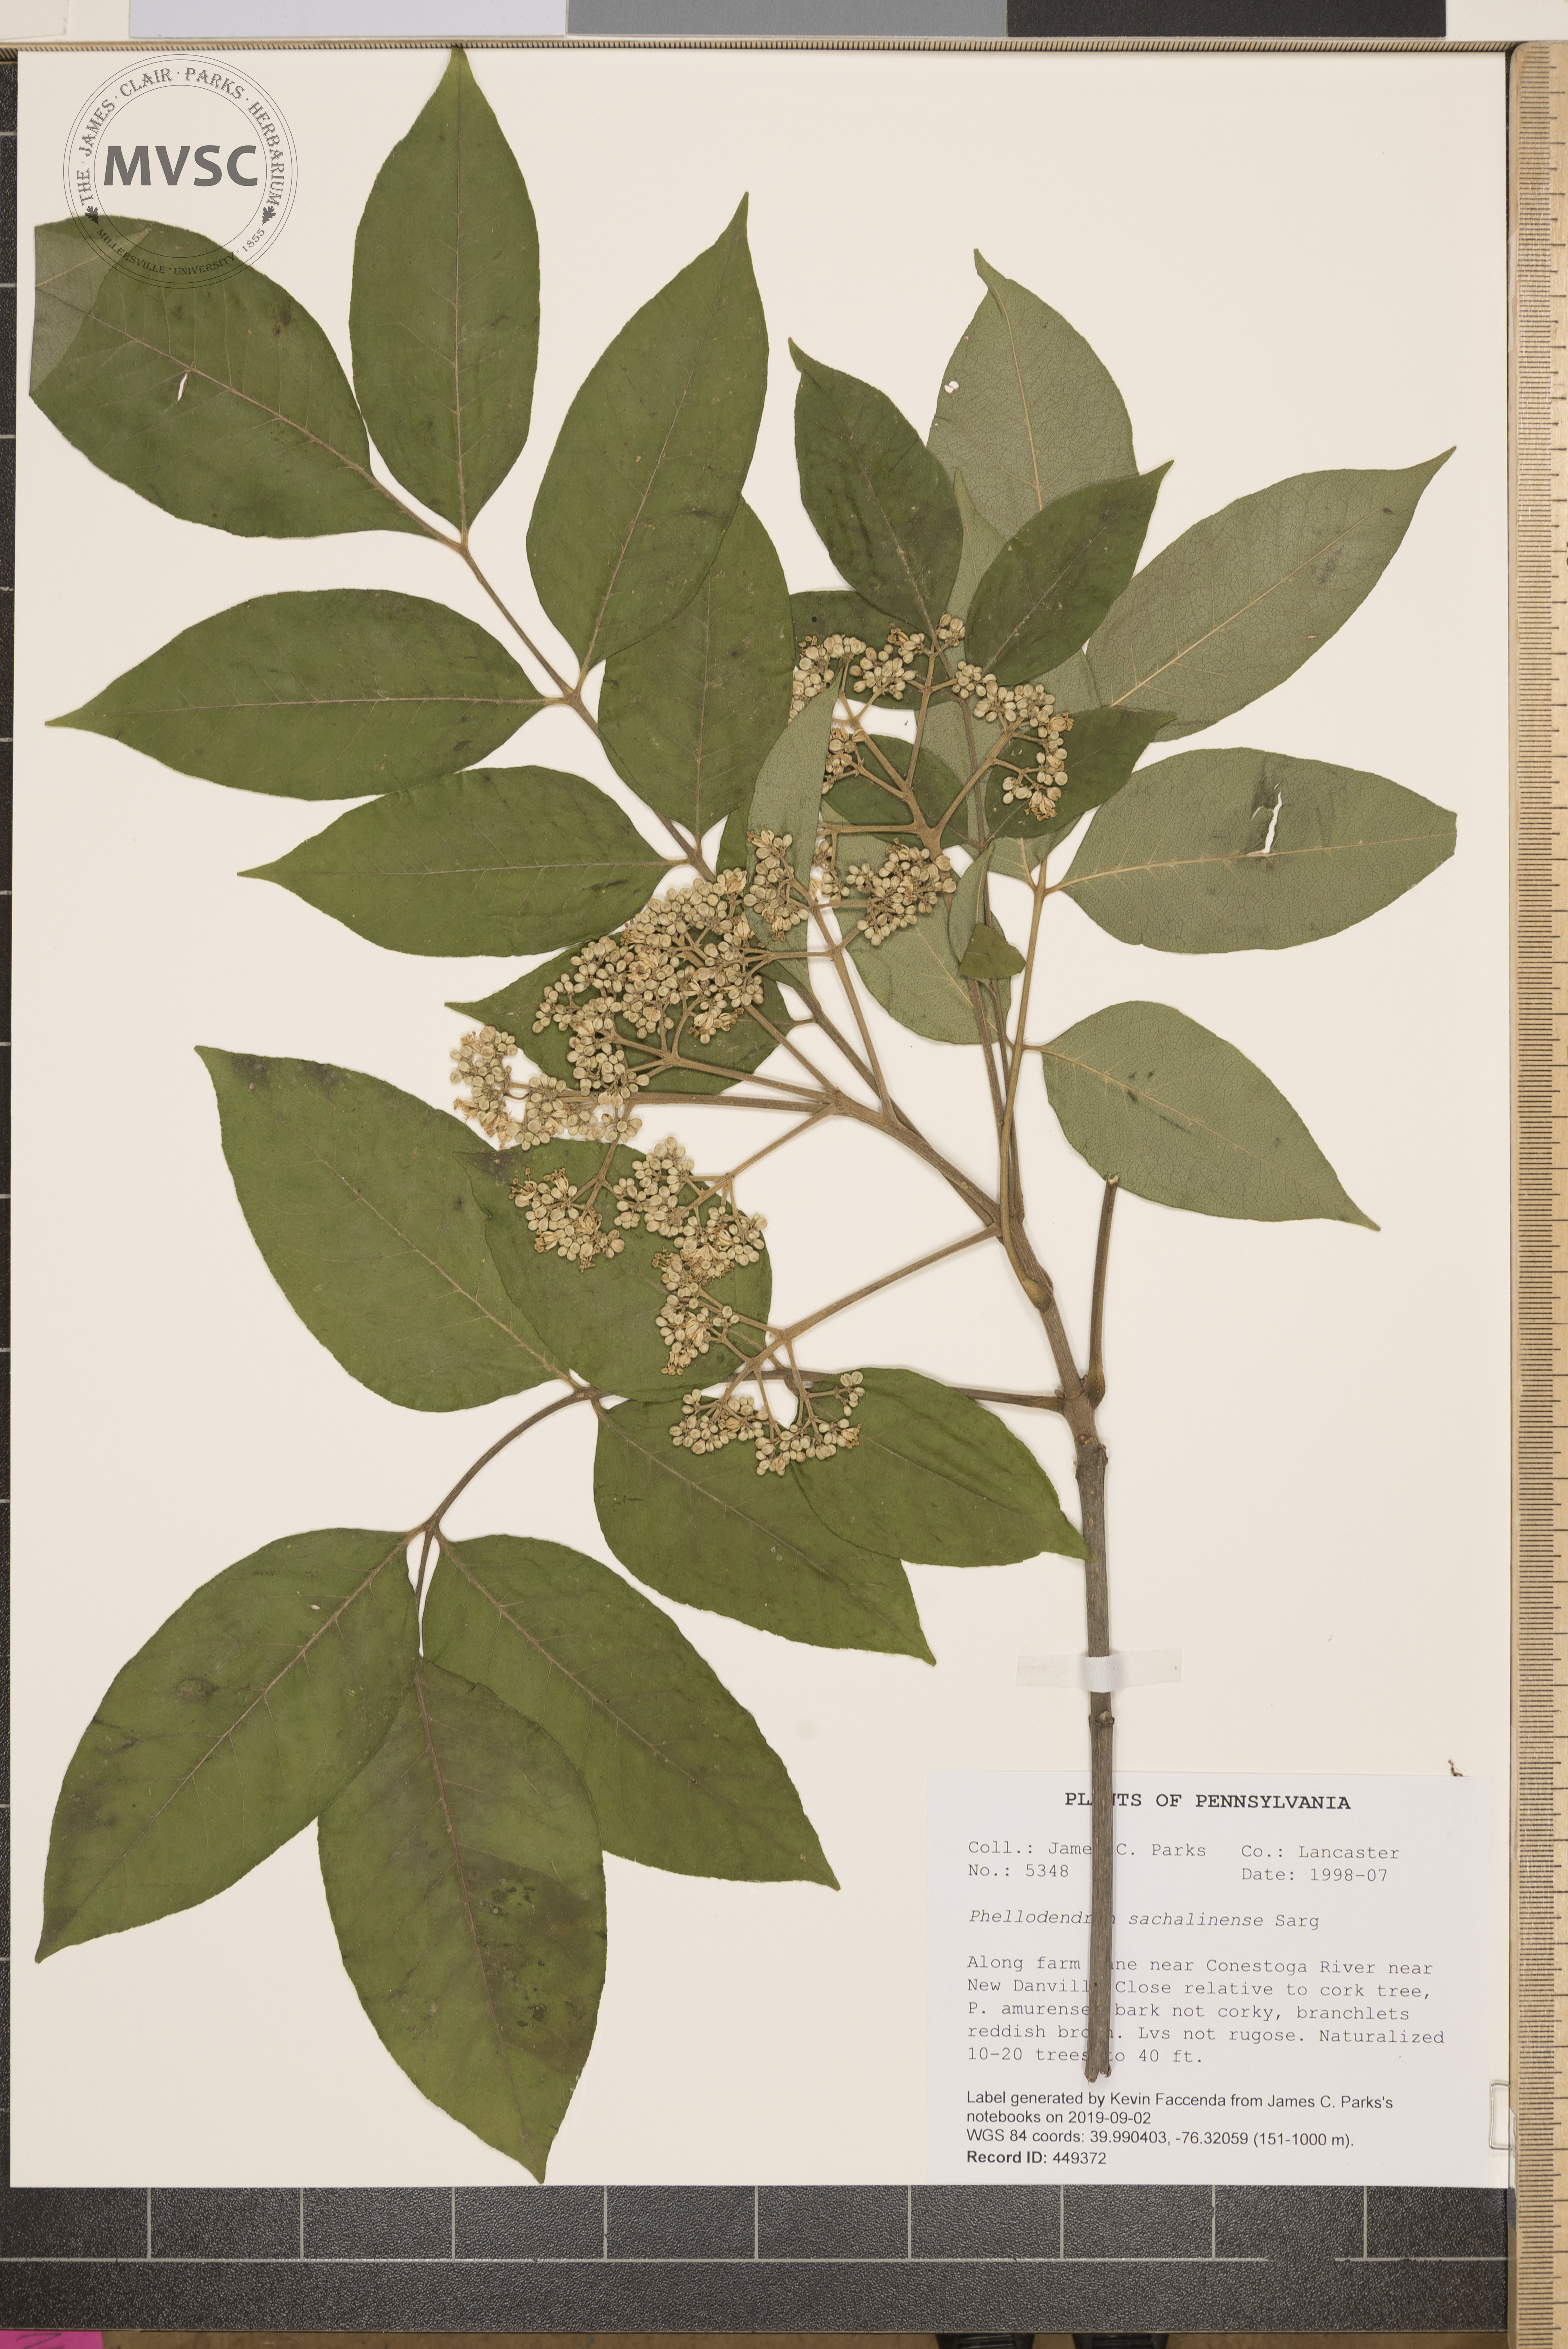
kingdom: Plantae
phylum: Tracheophyta
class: Magnoliopsida
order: Sapindales
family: Rutaceae
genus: Tetradium
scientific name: Tetradium daniellii
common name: Bee-bee tree
